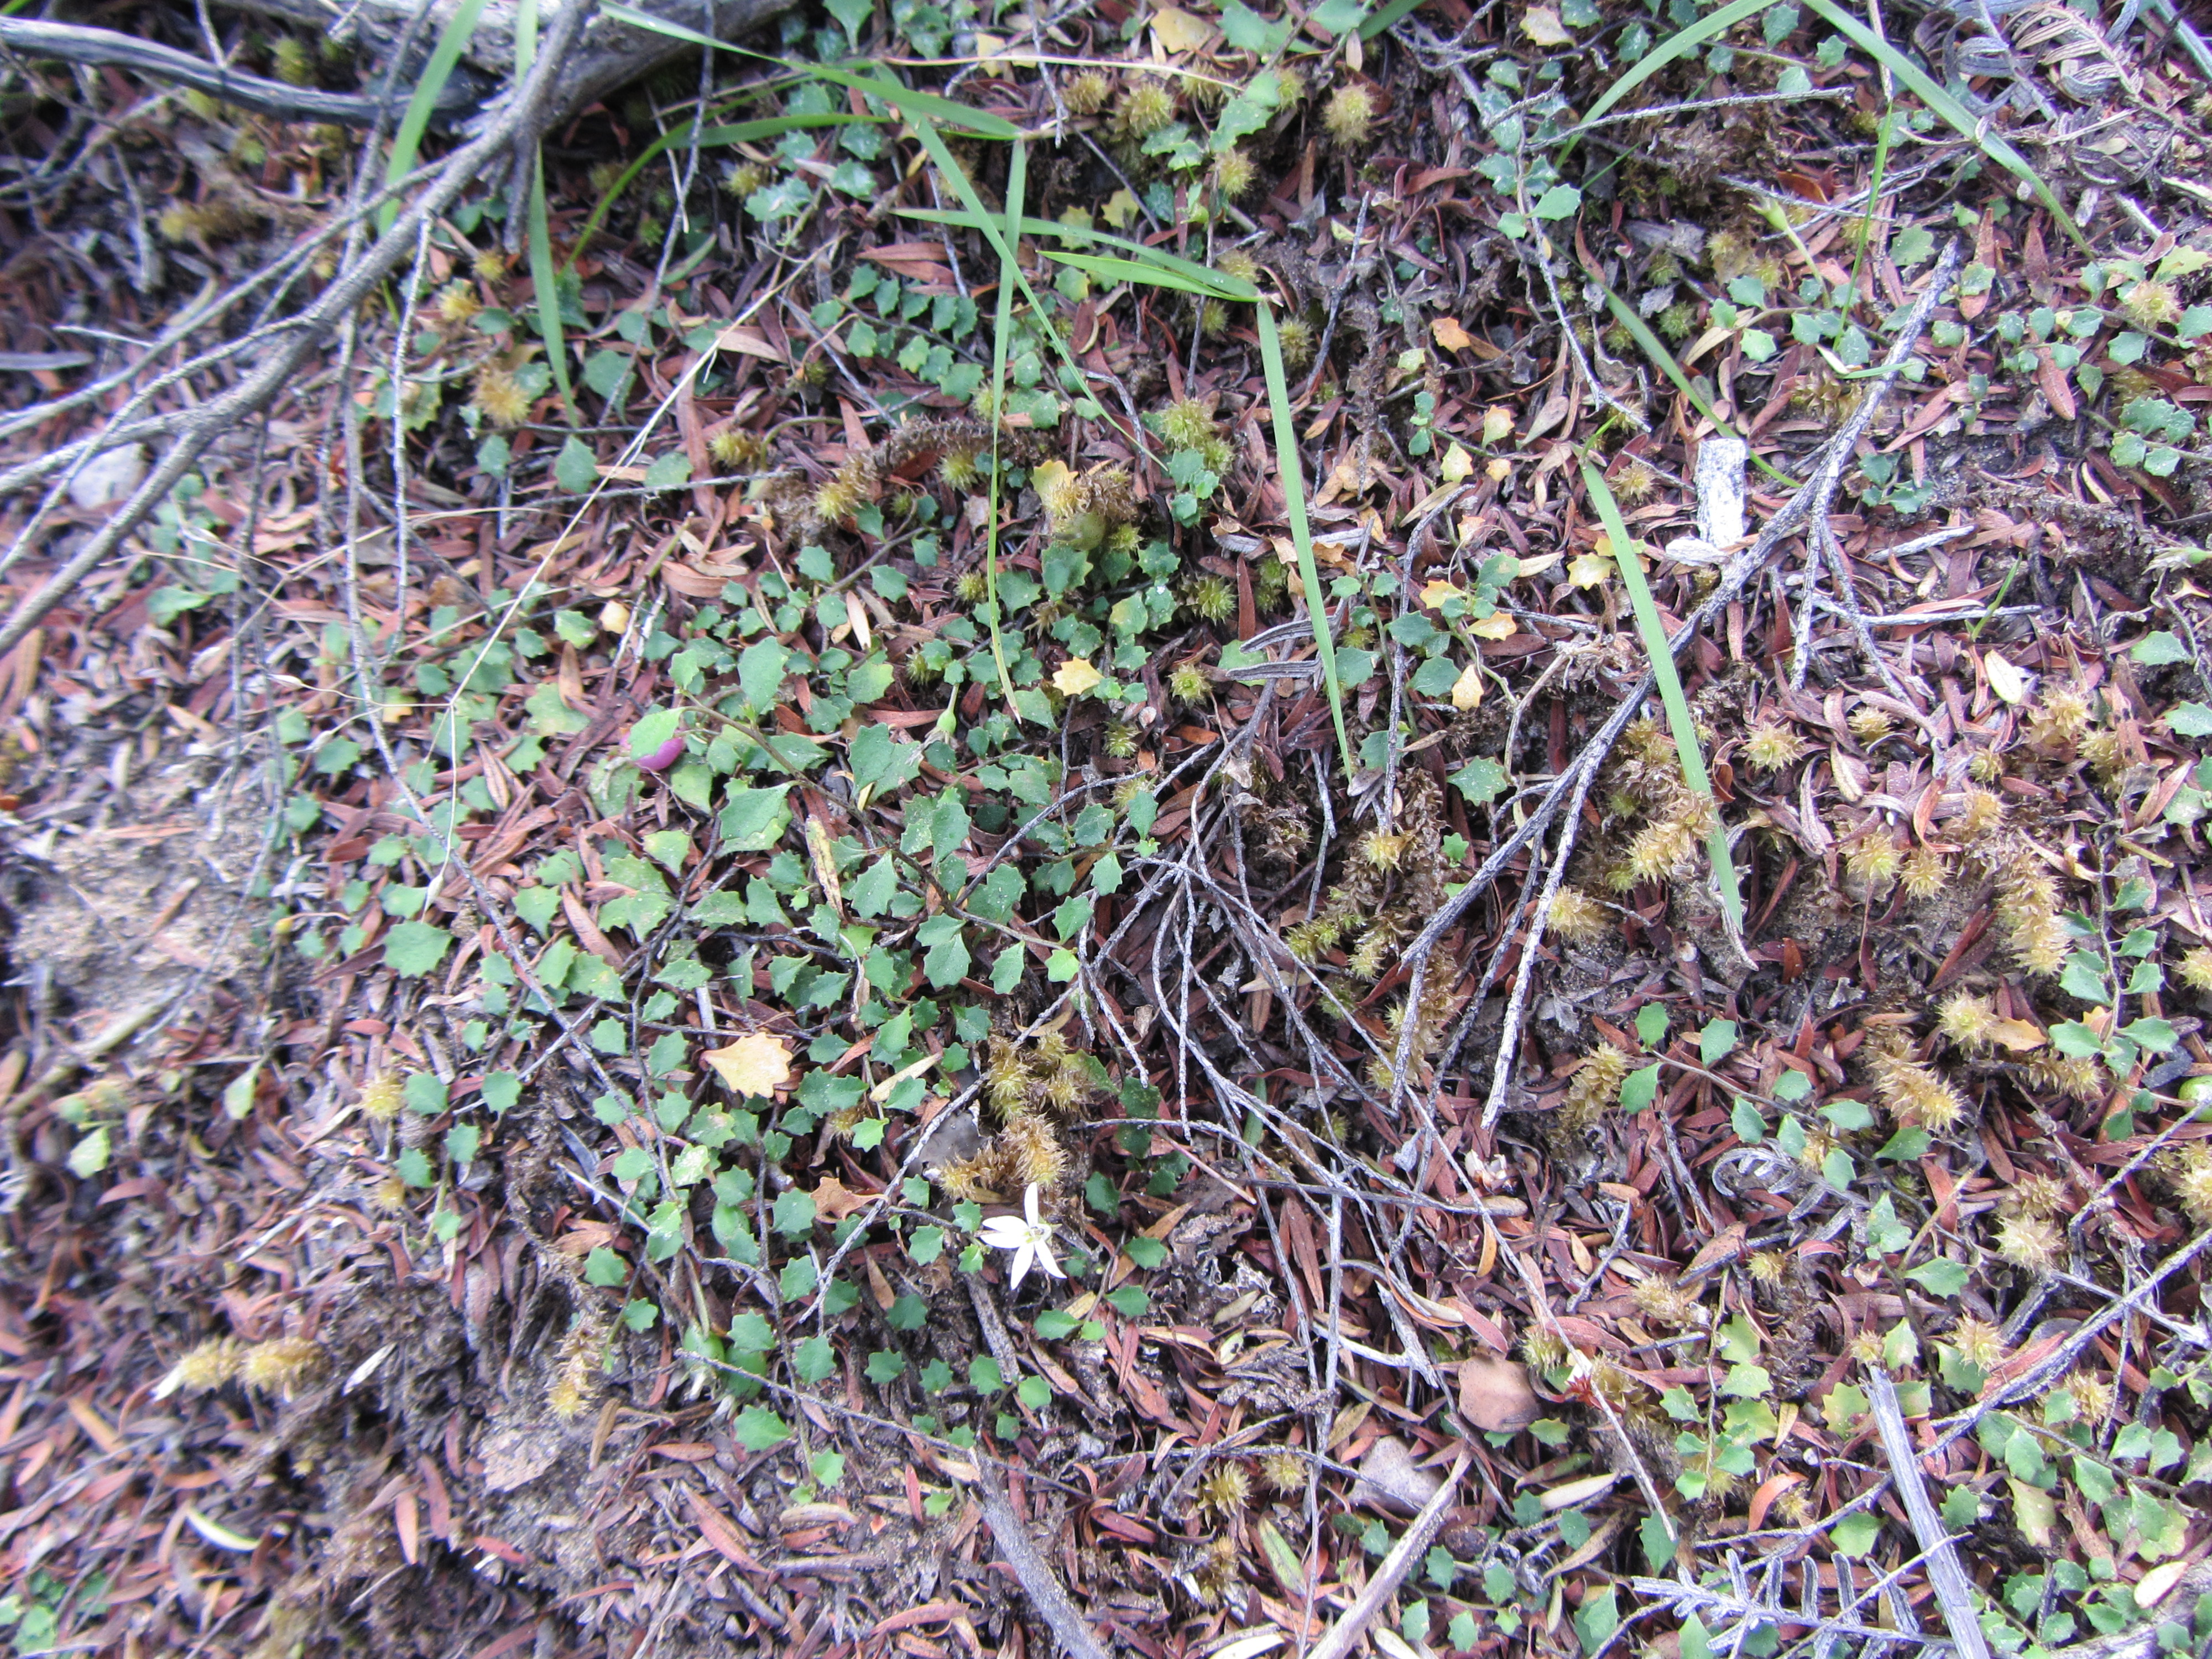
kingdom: Plantae
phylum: Tracheophyta
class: Magnoliopsida
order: Asterales
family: Campanulaceae
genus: Lobelia
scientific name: Lobelia
